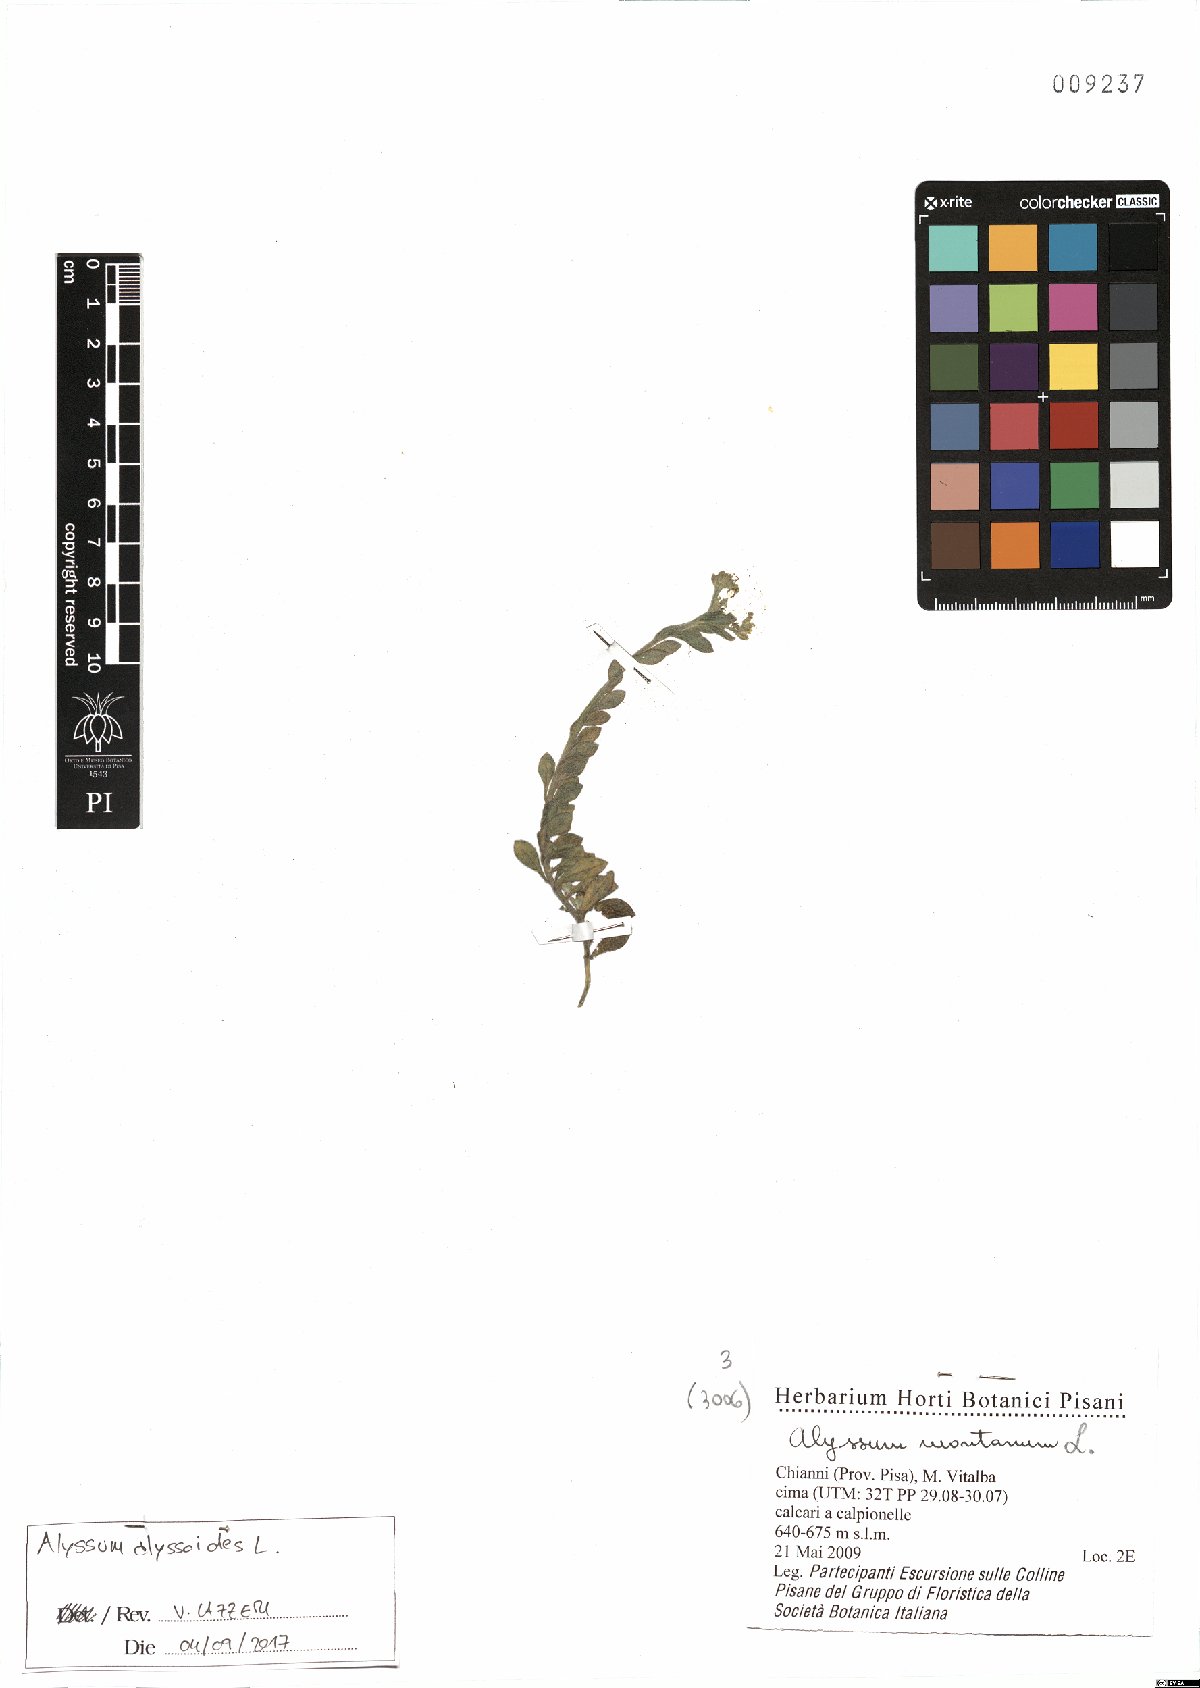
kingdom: Plantae
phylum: Tracheophyta
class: Magnoliopsida
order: Brassicales
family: Brassicaceae
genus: Alyssum
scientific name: Alyssum alyssoides
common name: Small alison
